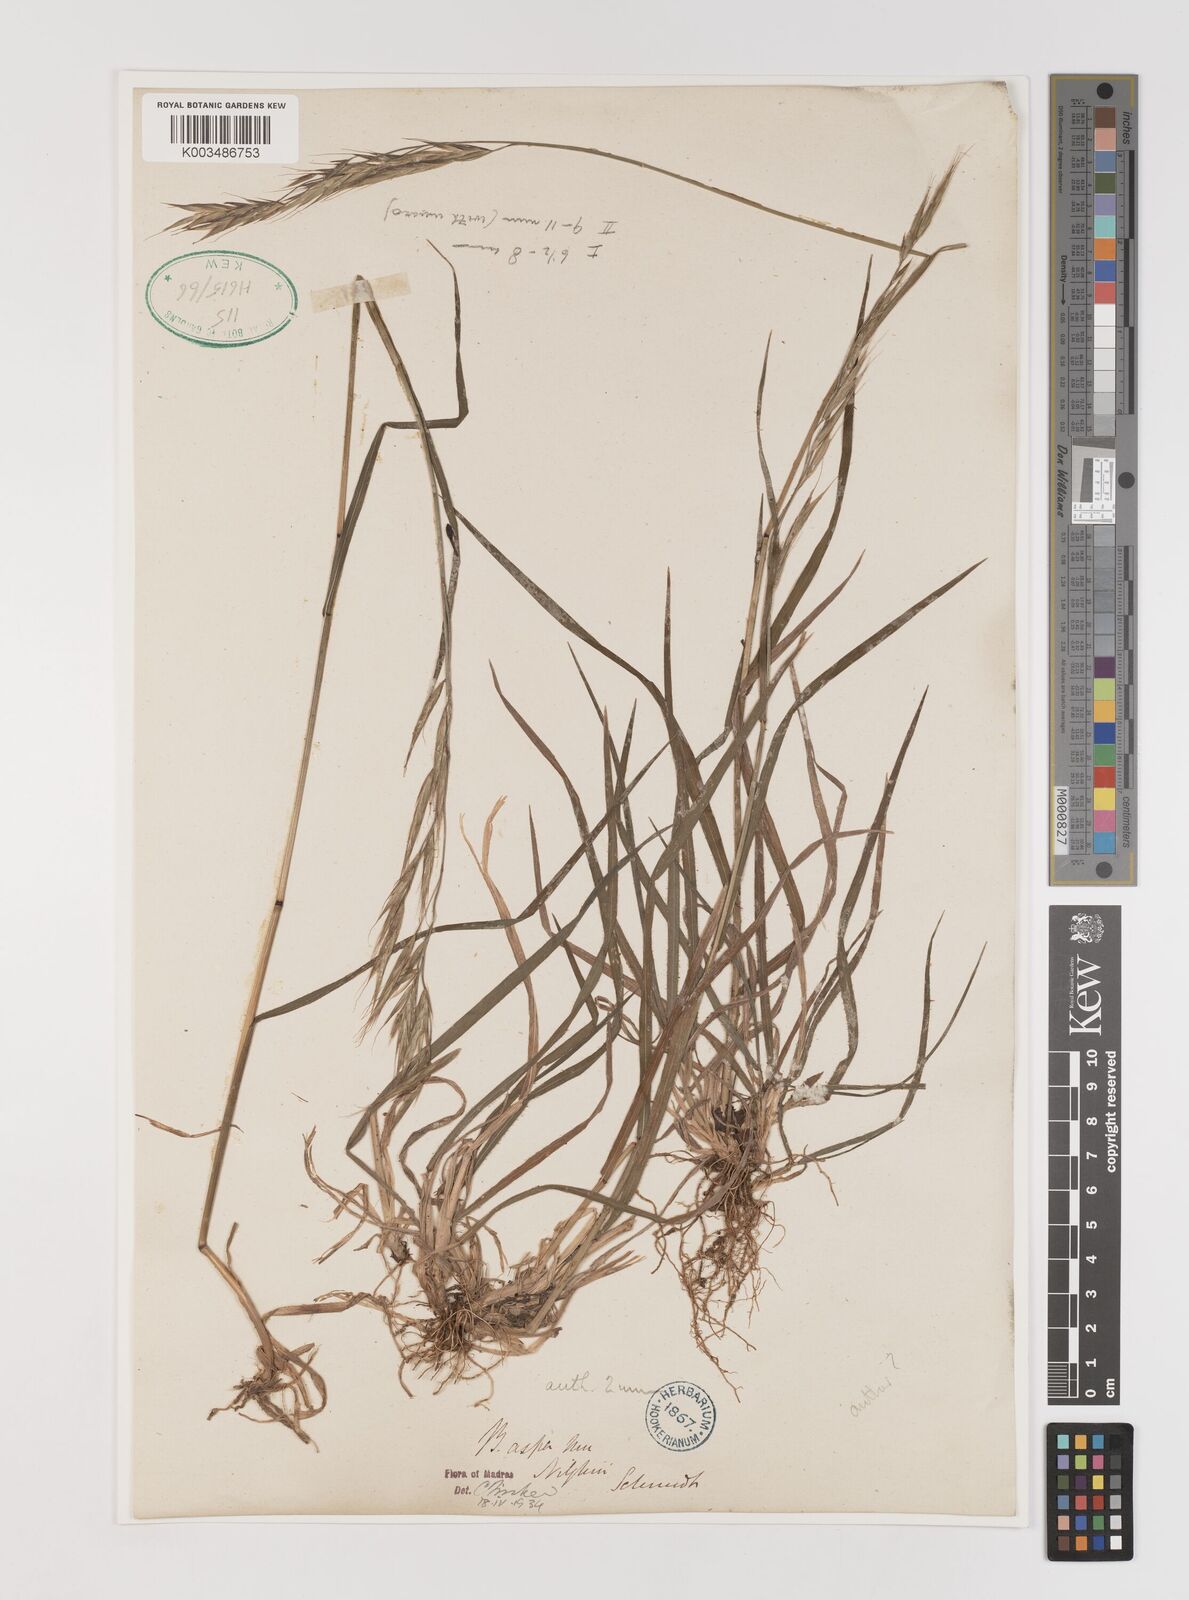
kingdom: Plantae
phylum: Tracheophyta
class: Liliopsida
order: Poales
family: Poaceae
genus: Brachypodium
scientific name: Brachypodium retusum
